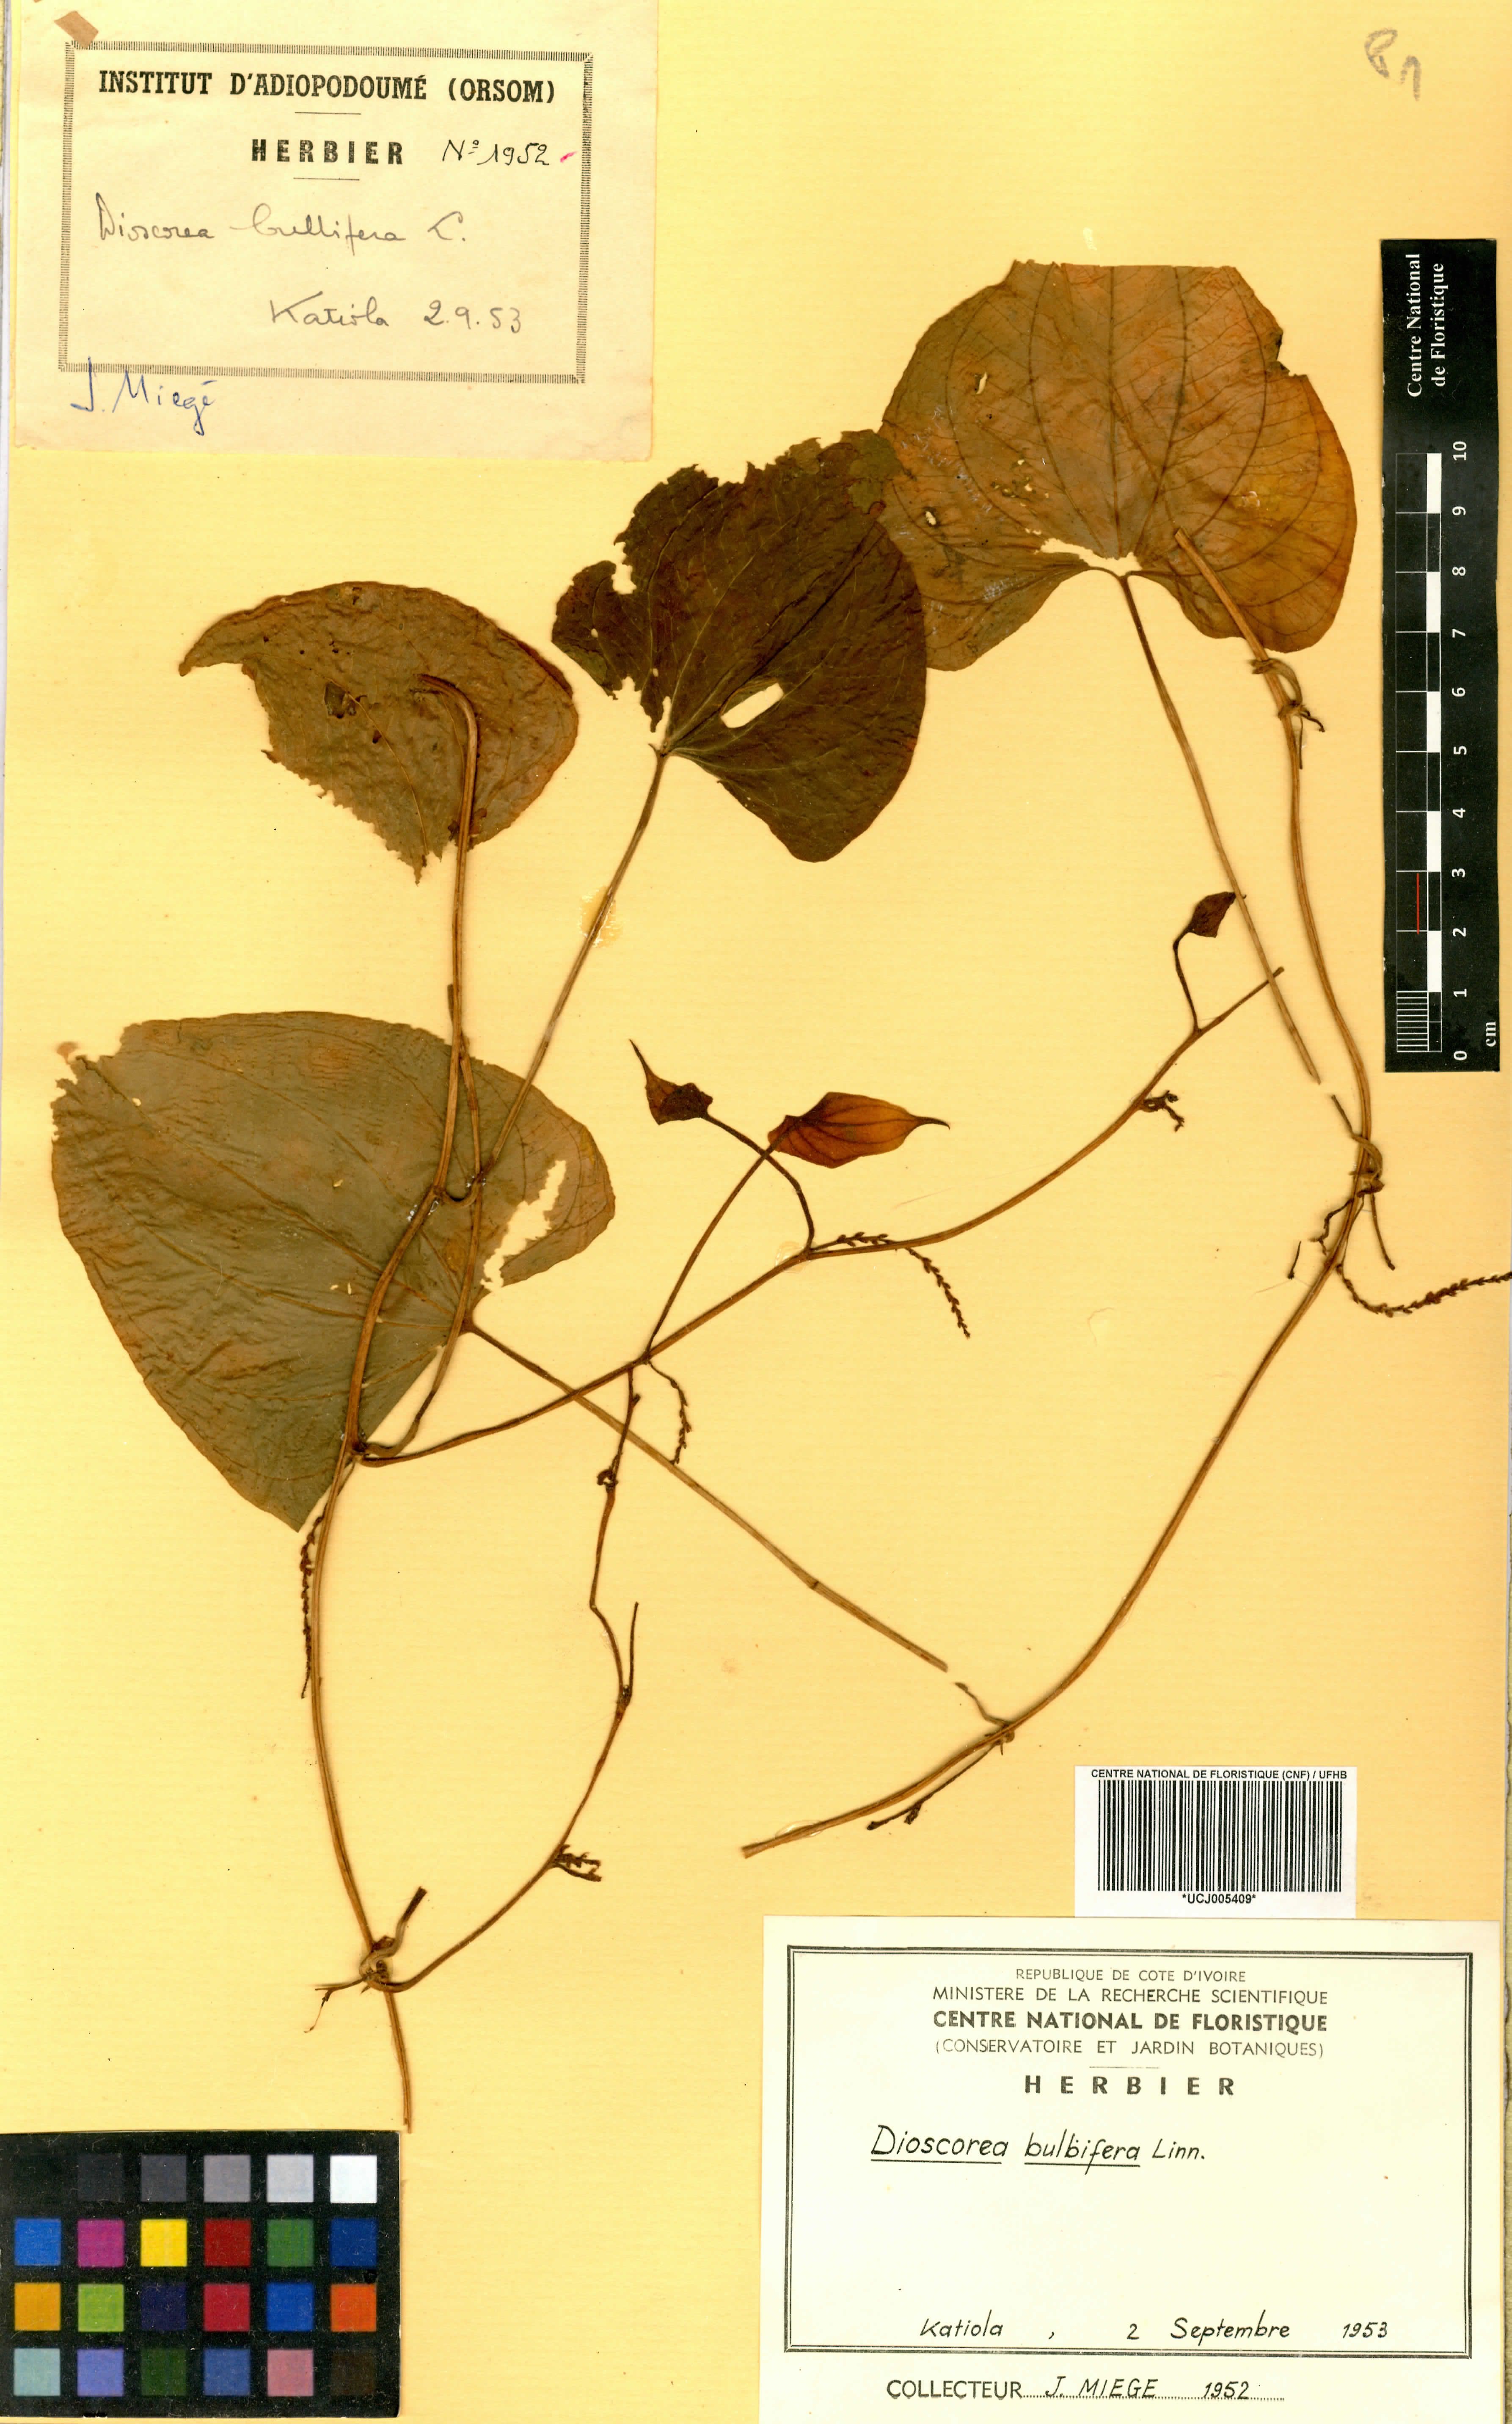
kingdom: Plantae
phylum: Tracheophyta
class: Liliopsida
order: Dioscoreales
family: Dioscoreaceae
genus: Dioscorea
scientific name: Dioscorea bulbifera
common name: Air yam
